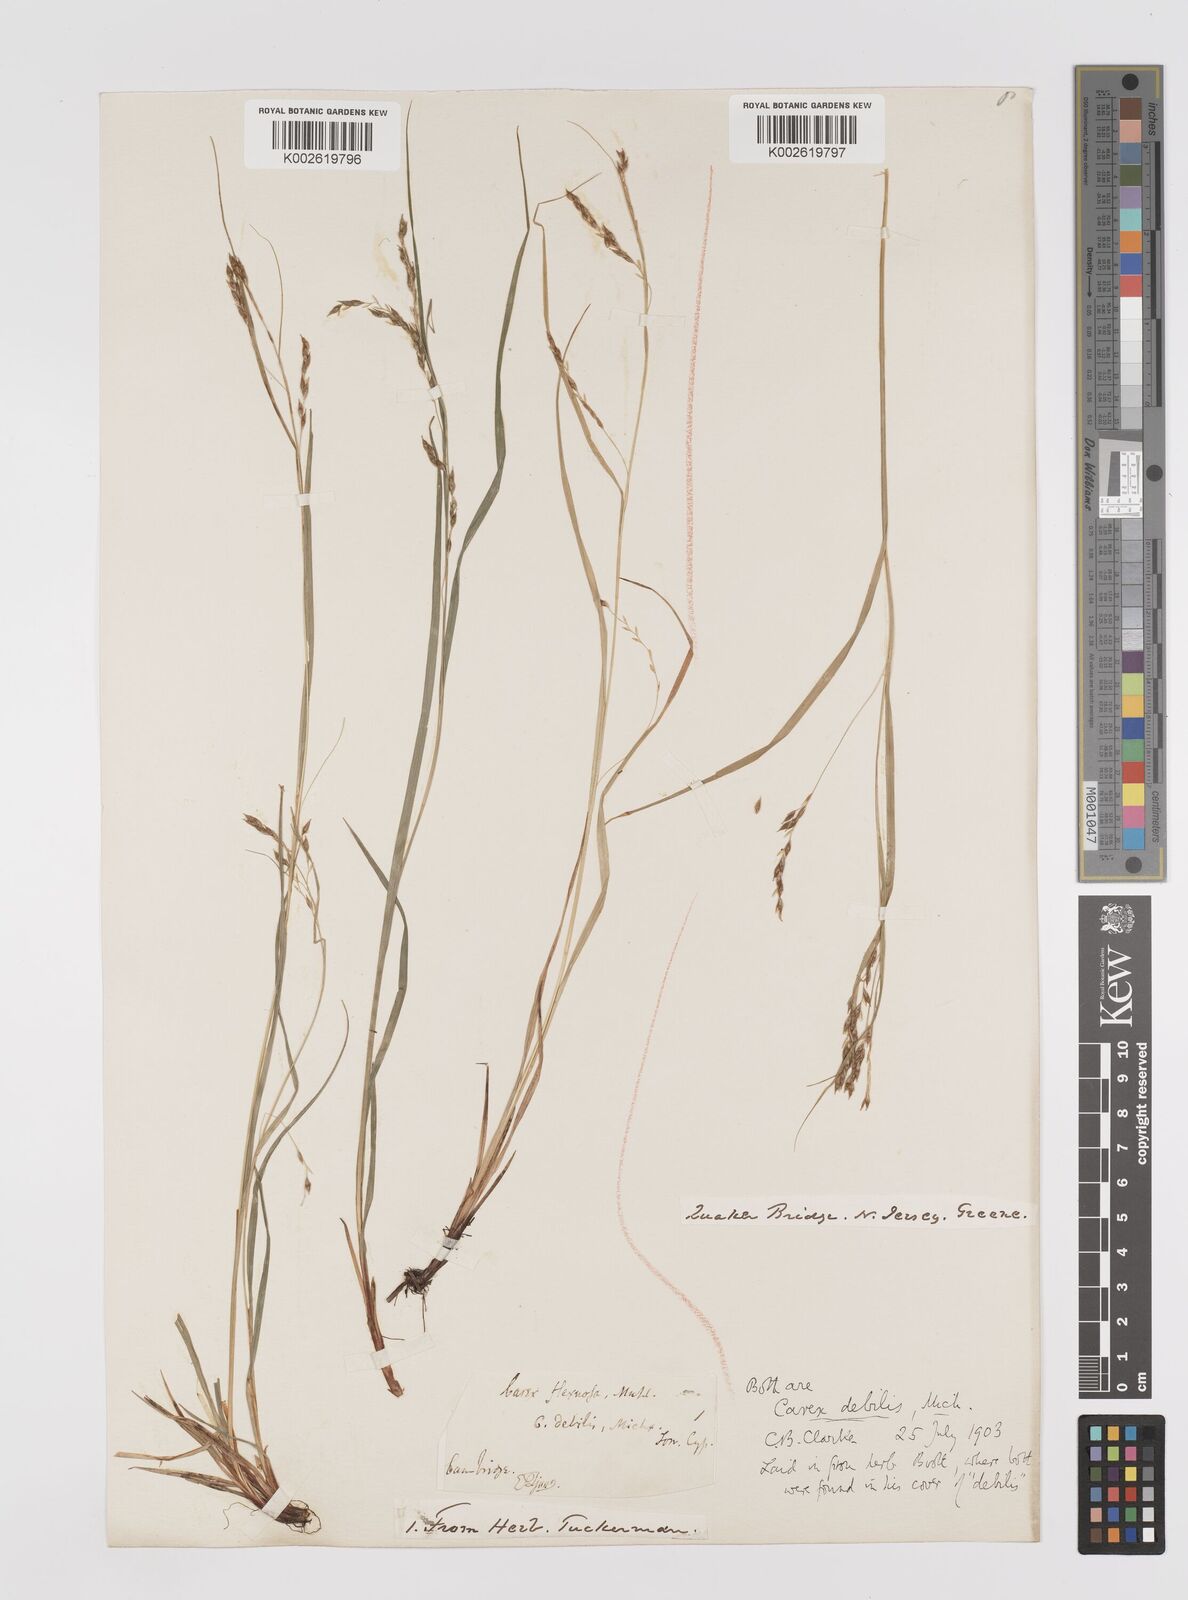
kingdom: Plantae
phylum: Tracheophyta
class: Liliopsida
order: Poales
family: Cyperaceae
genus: Carex
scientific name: Carex debilis
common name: White-edge sedge
